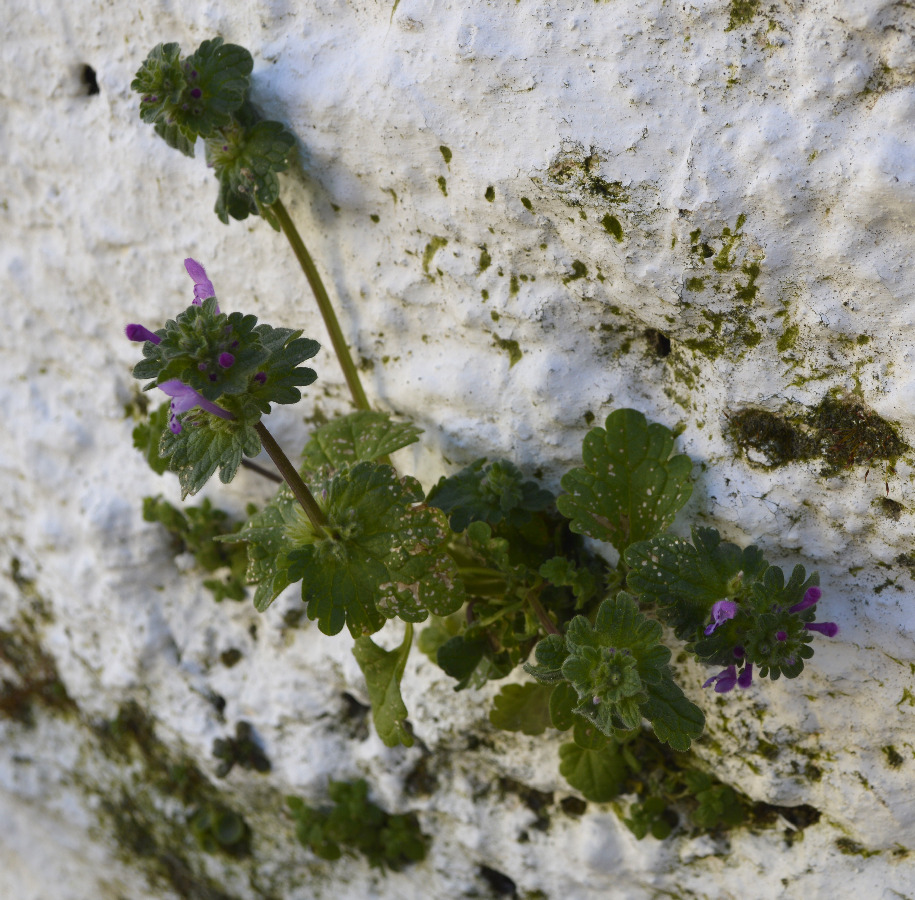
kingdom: Plantae
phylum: Tracheophyta
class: Magnoliopsida
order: Lamiales
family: Lamiaceae
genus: Lamium
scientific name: Lamium amplexicaule
